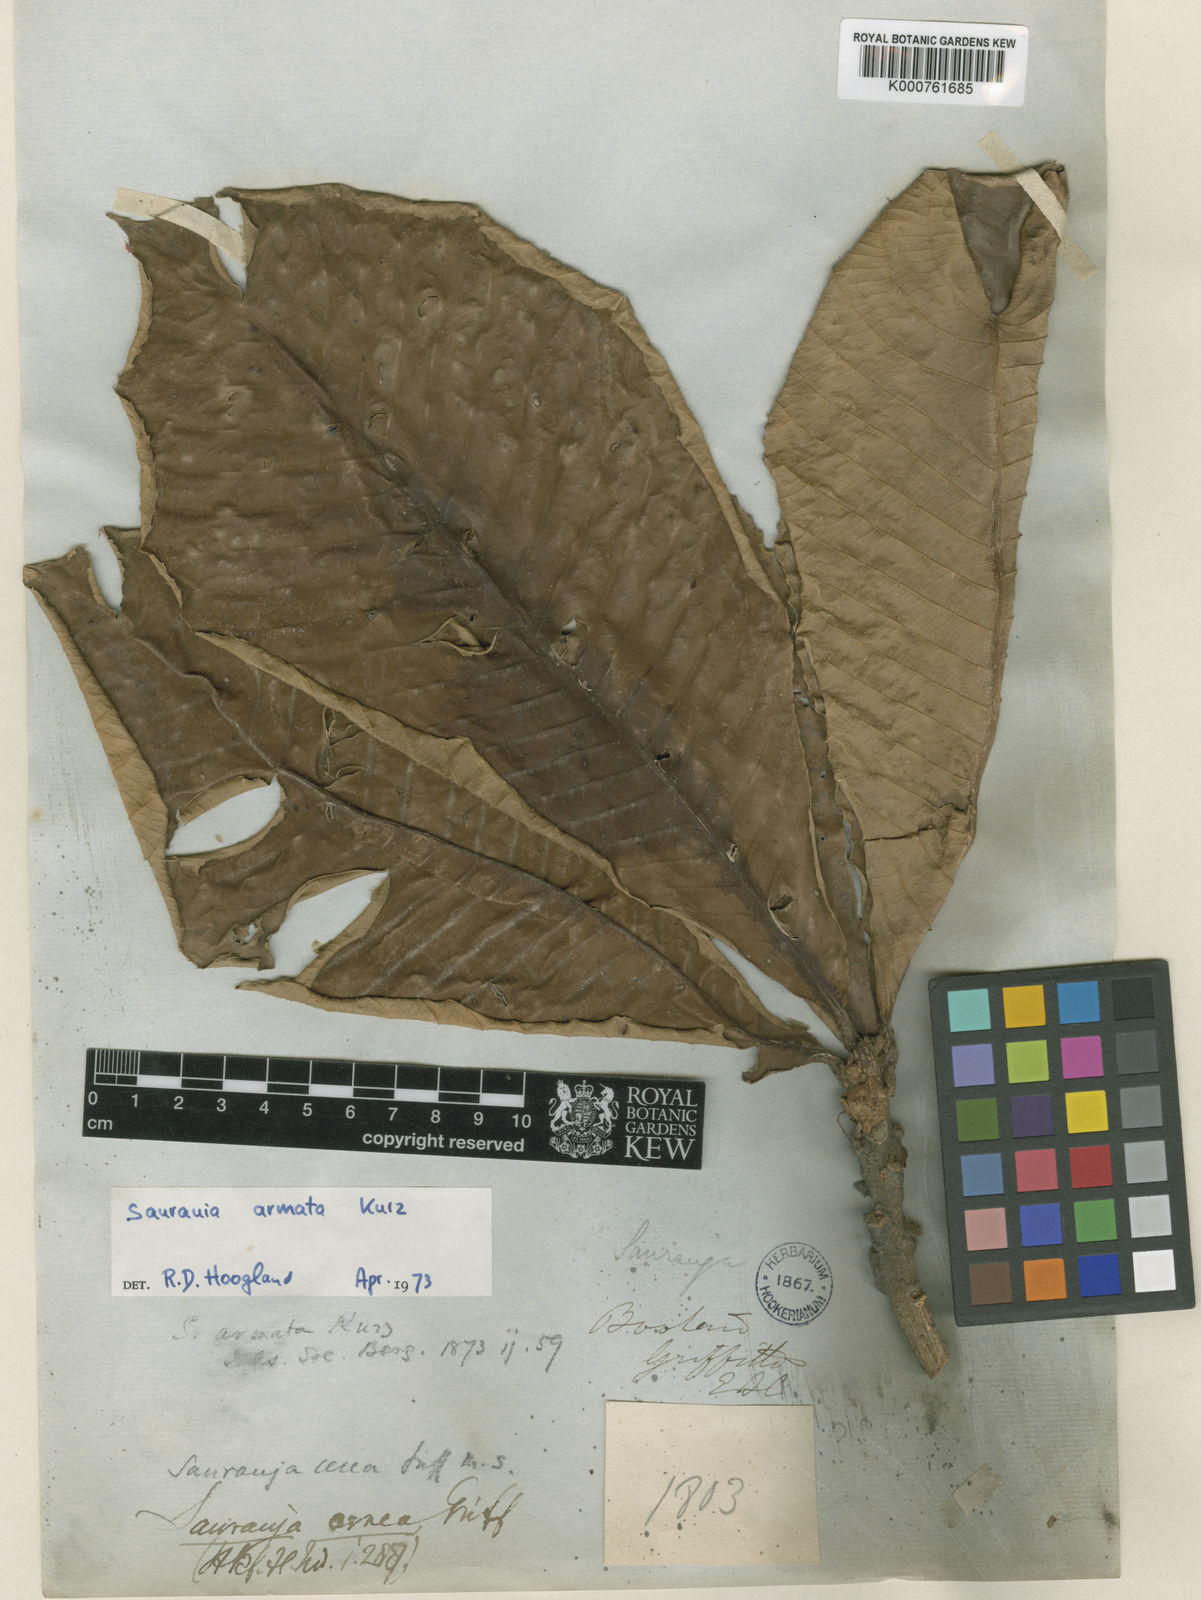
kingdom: Plantae
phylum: Tracheophyta
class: Magnoliopsida
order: Ericales
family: Actinidiaceae
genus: Saurauia
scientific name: Saurauia armata
